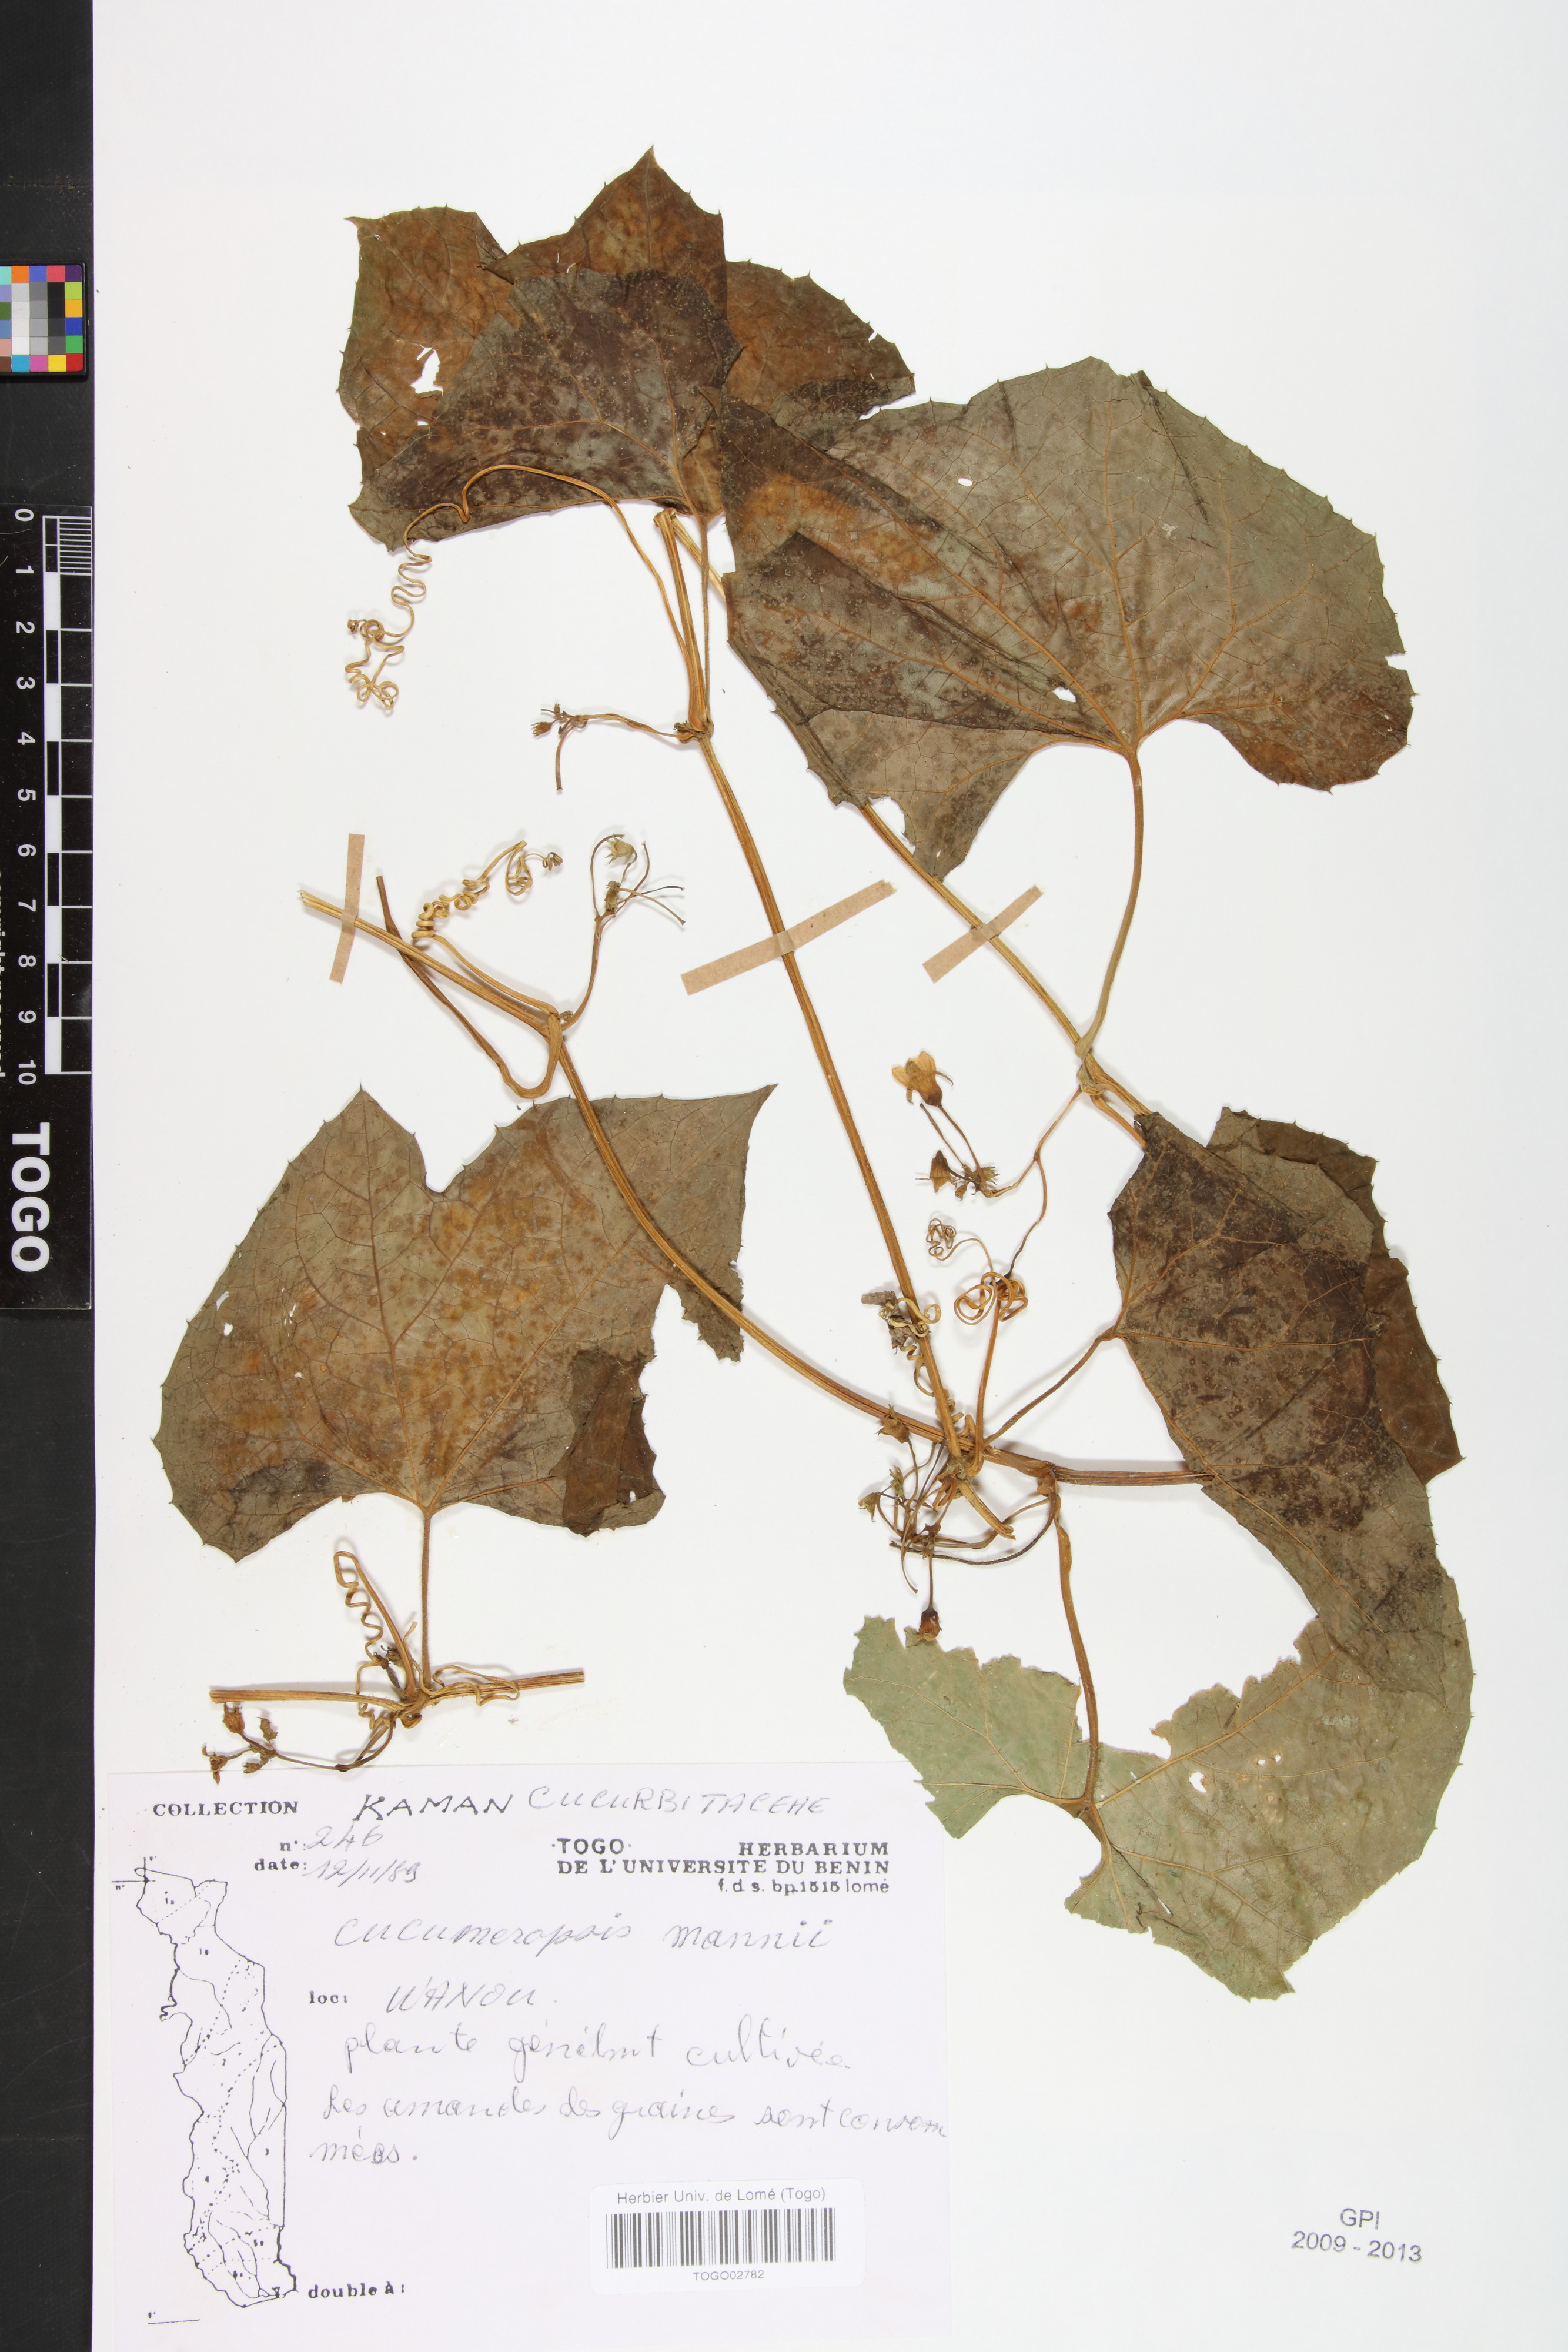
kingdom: Plantae
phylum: Tracheophyta
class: Magnoliopsida
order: Cucurbitales
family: Cucurbitaceae
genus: Melothria
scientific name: Melothria sphaerocarpa
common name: Egusi-itoo
